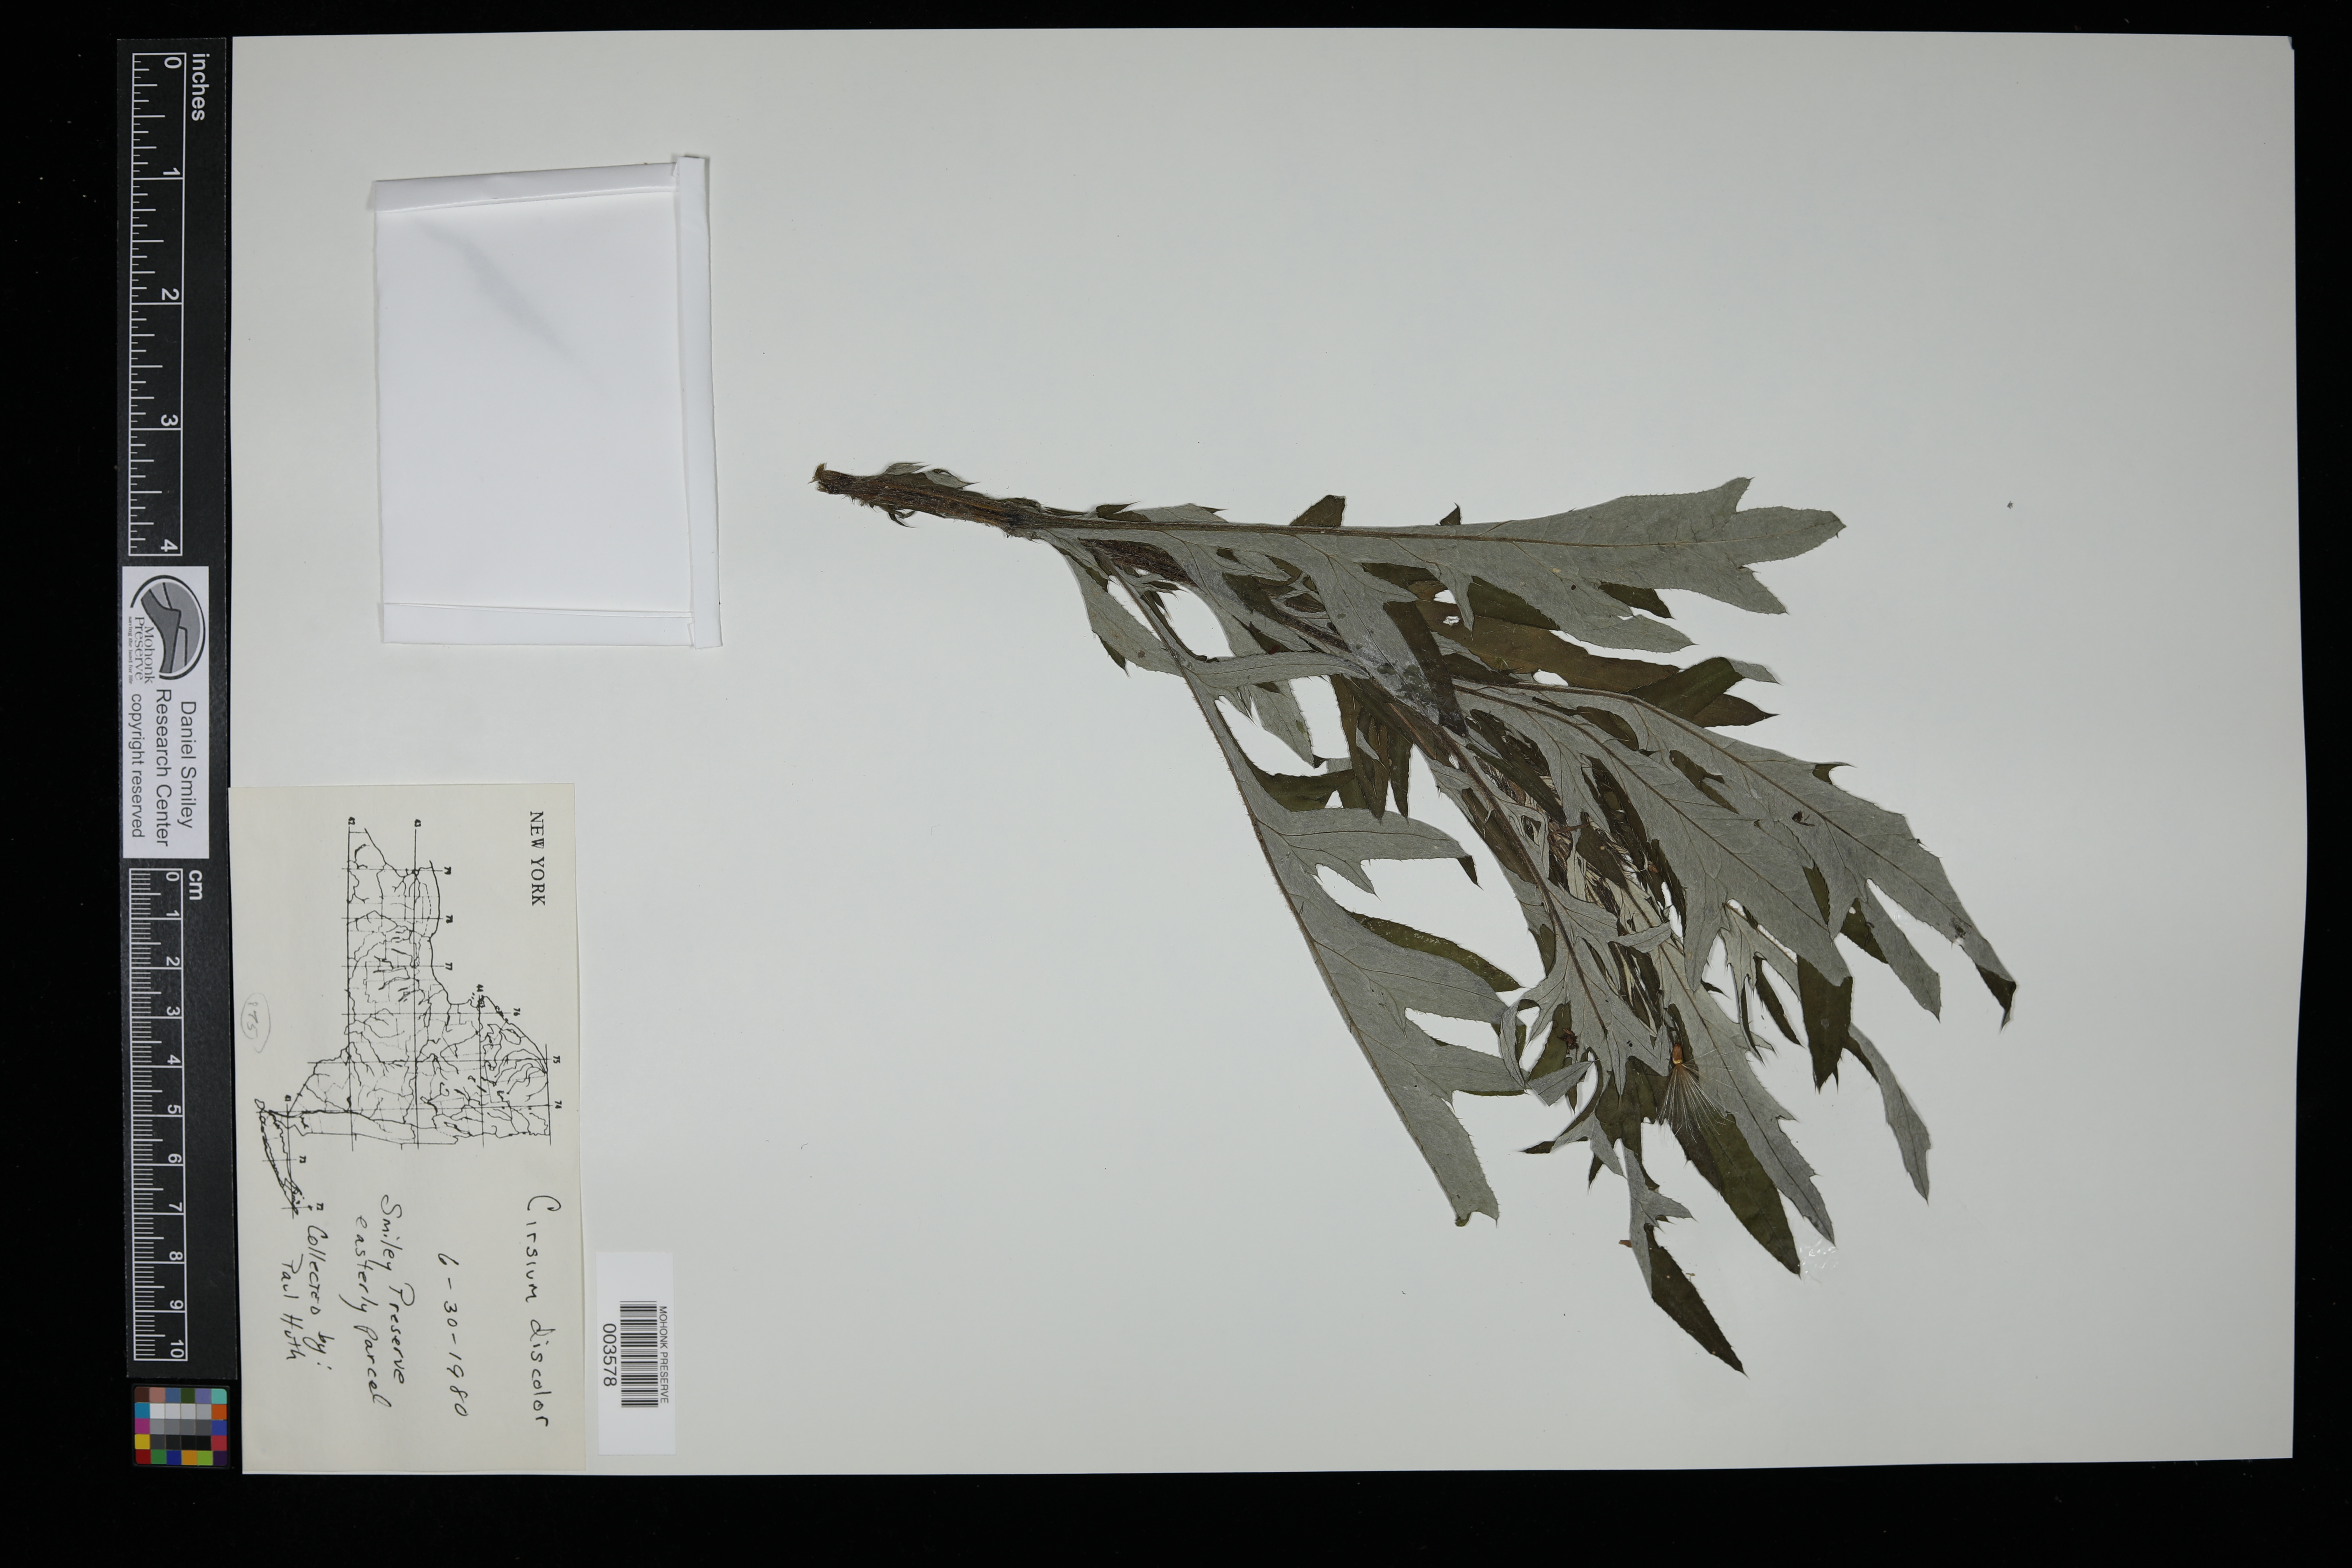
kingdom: Plantae
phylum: Tracheophyta
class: Magnoliopsida
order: Asterales
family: Asteraceae
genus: Cirsium
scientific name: Cirsium discolor
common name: Field thistle
